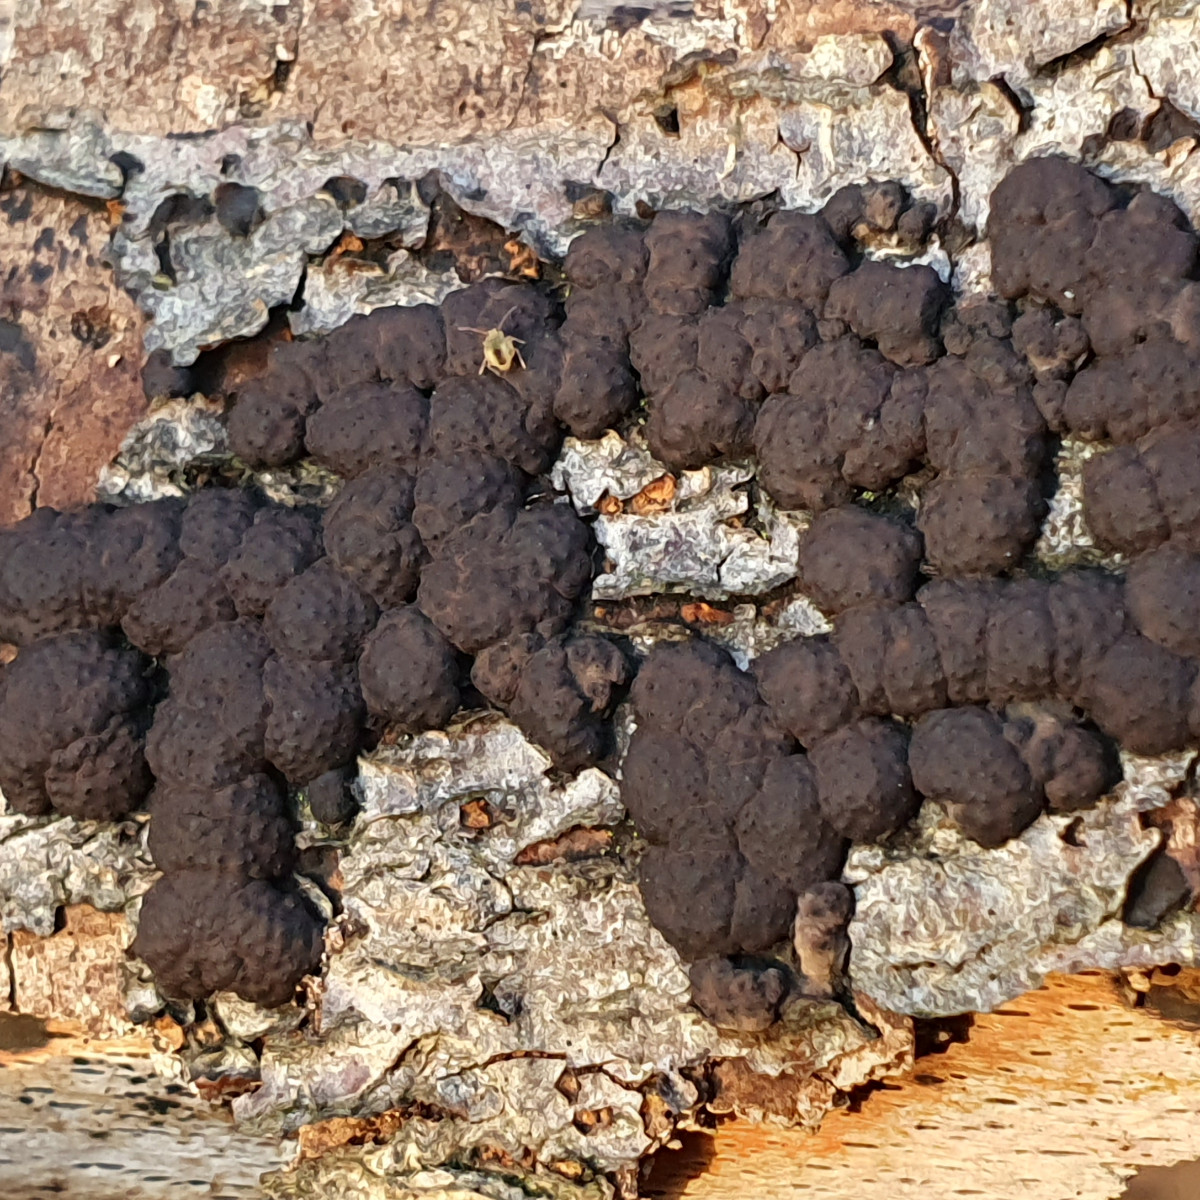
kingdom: Fungi
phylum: Ascomycota
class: Sordariomycetes
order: Xylariales
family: Hypoxylaceae
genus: Jackrogersella
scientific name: Jackrogersella cohaerens
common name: sammenflydende kulbær
